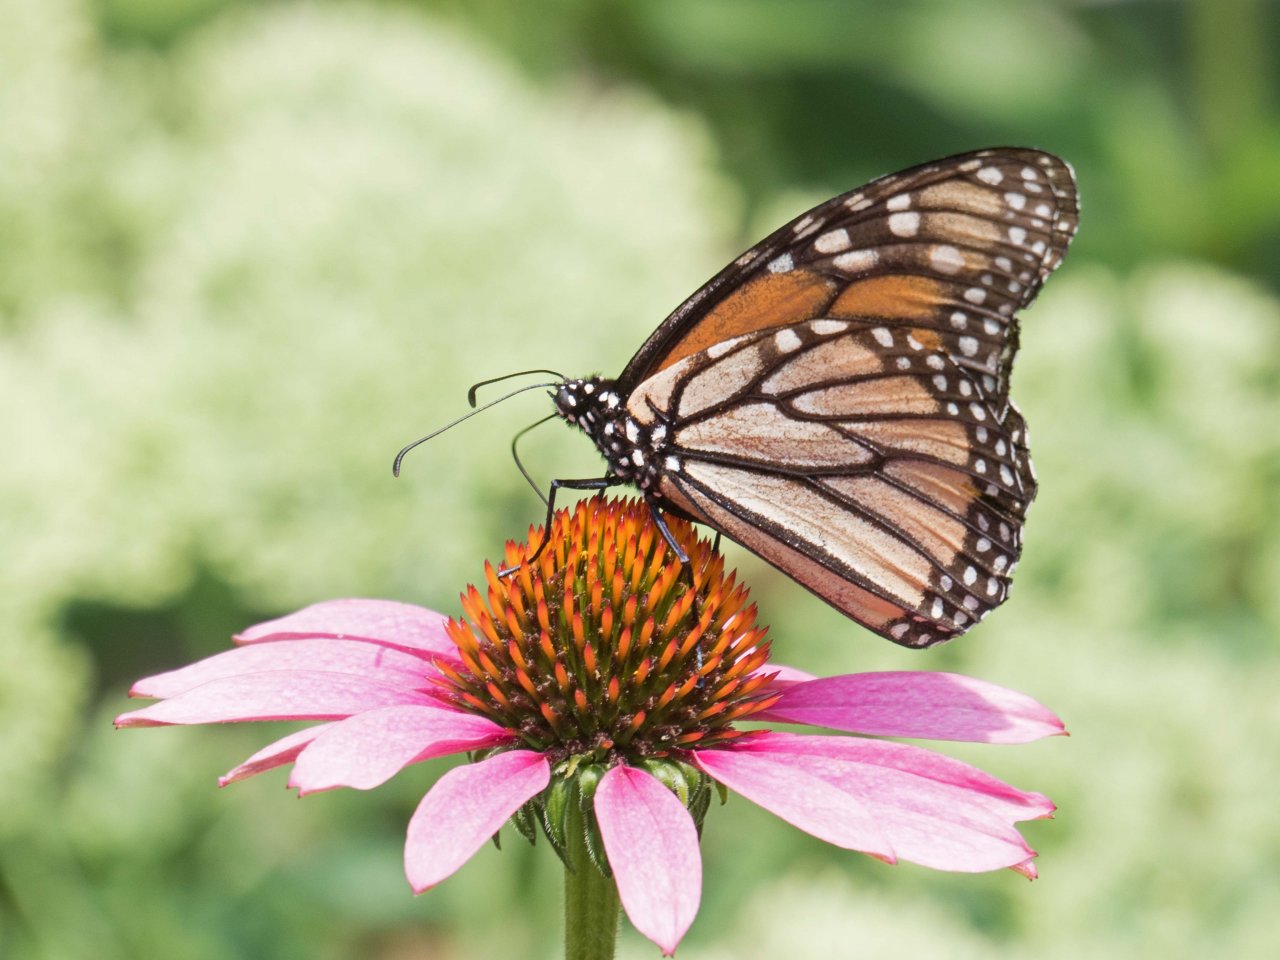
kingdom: Animalia
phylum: Arthropoda
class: Insecta
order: Lepidoptera
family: Nymphalidae
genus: Danaus
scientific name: Danaus plexippus
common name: Monarch
